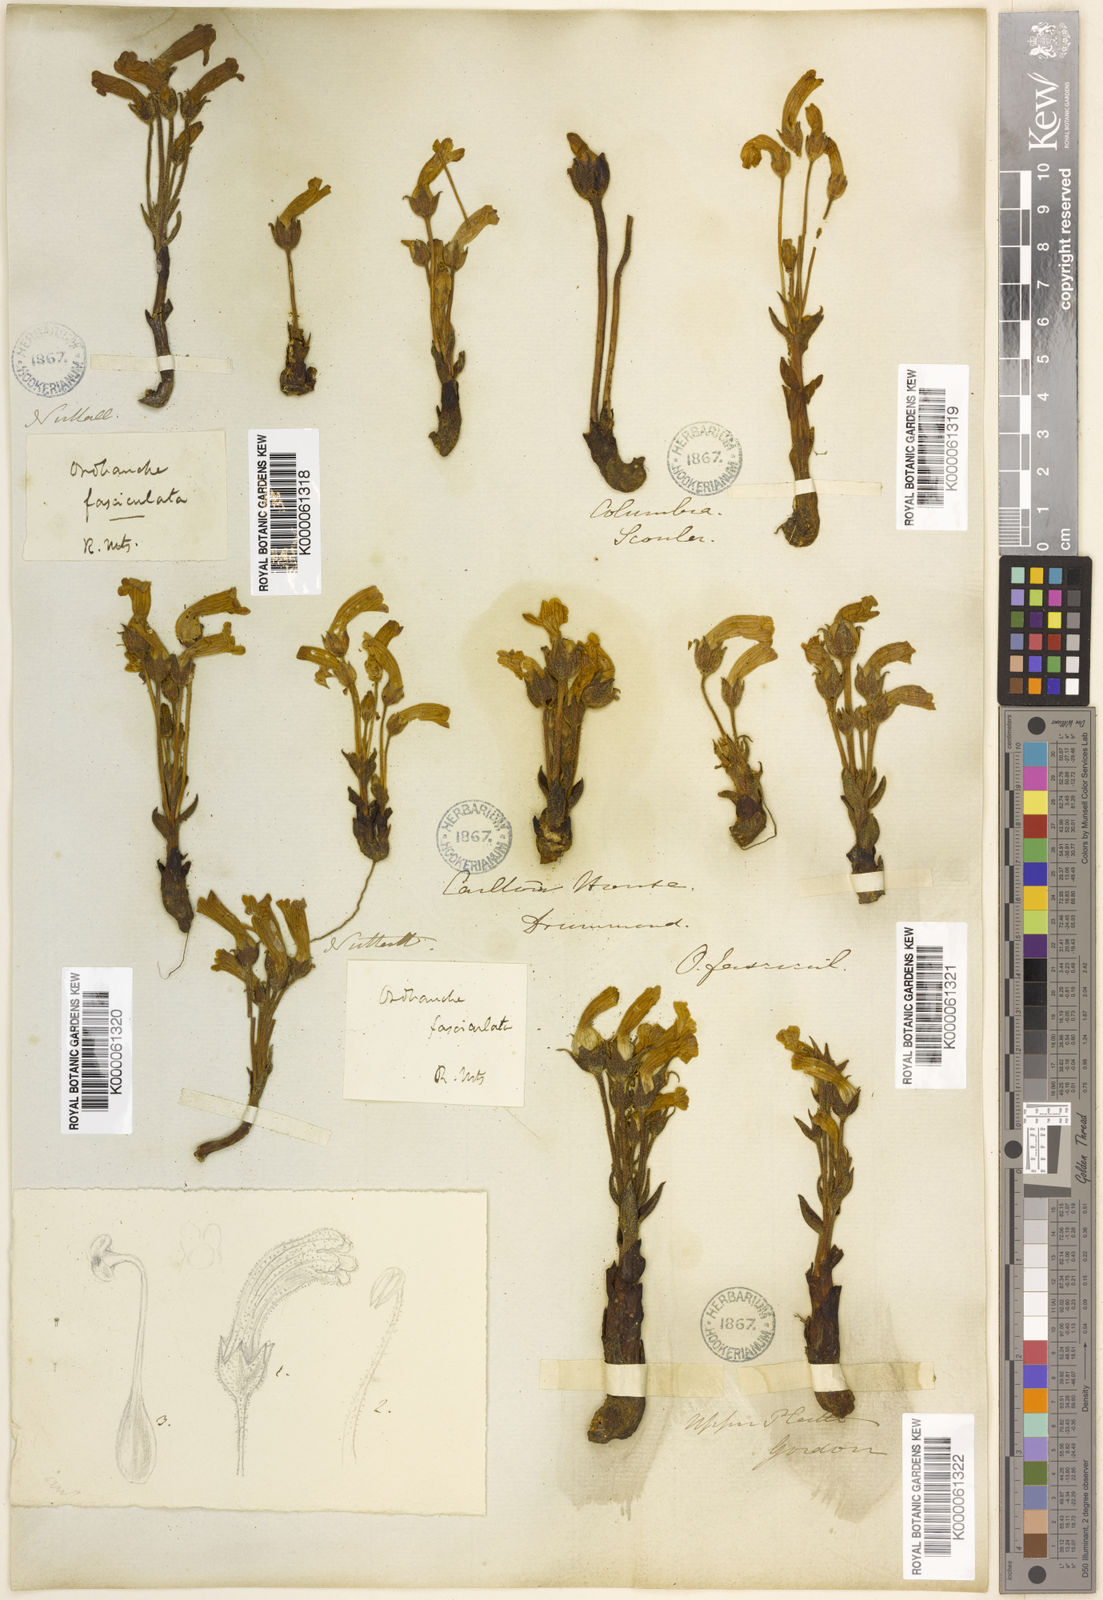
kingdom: Plantae
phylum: Tracheophyta
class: Magnoliopsida
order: Lamiales
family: Orobanchaceae
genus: Aphyllon
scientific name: Aphyllon fasciculatum
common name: Clustered broomrape
